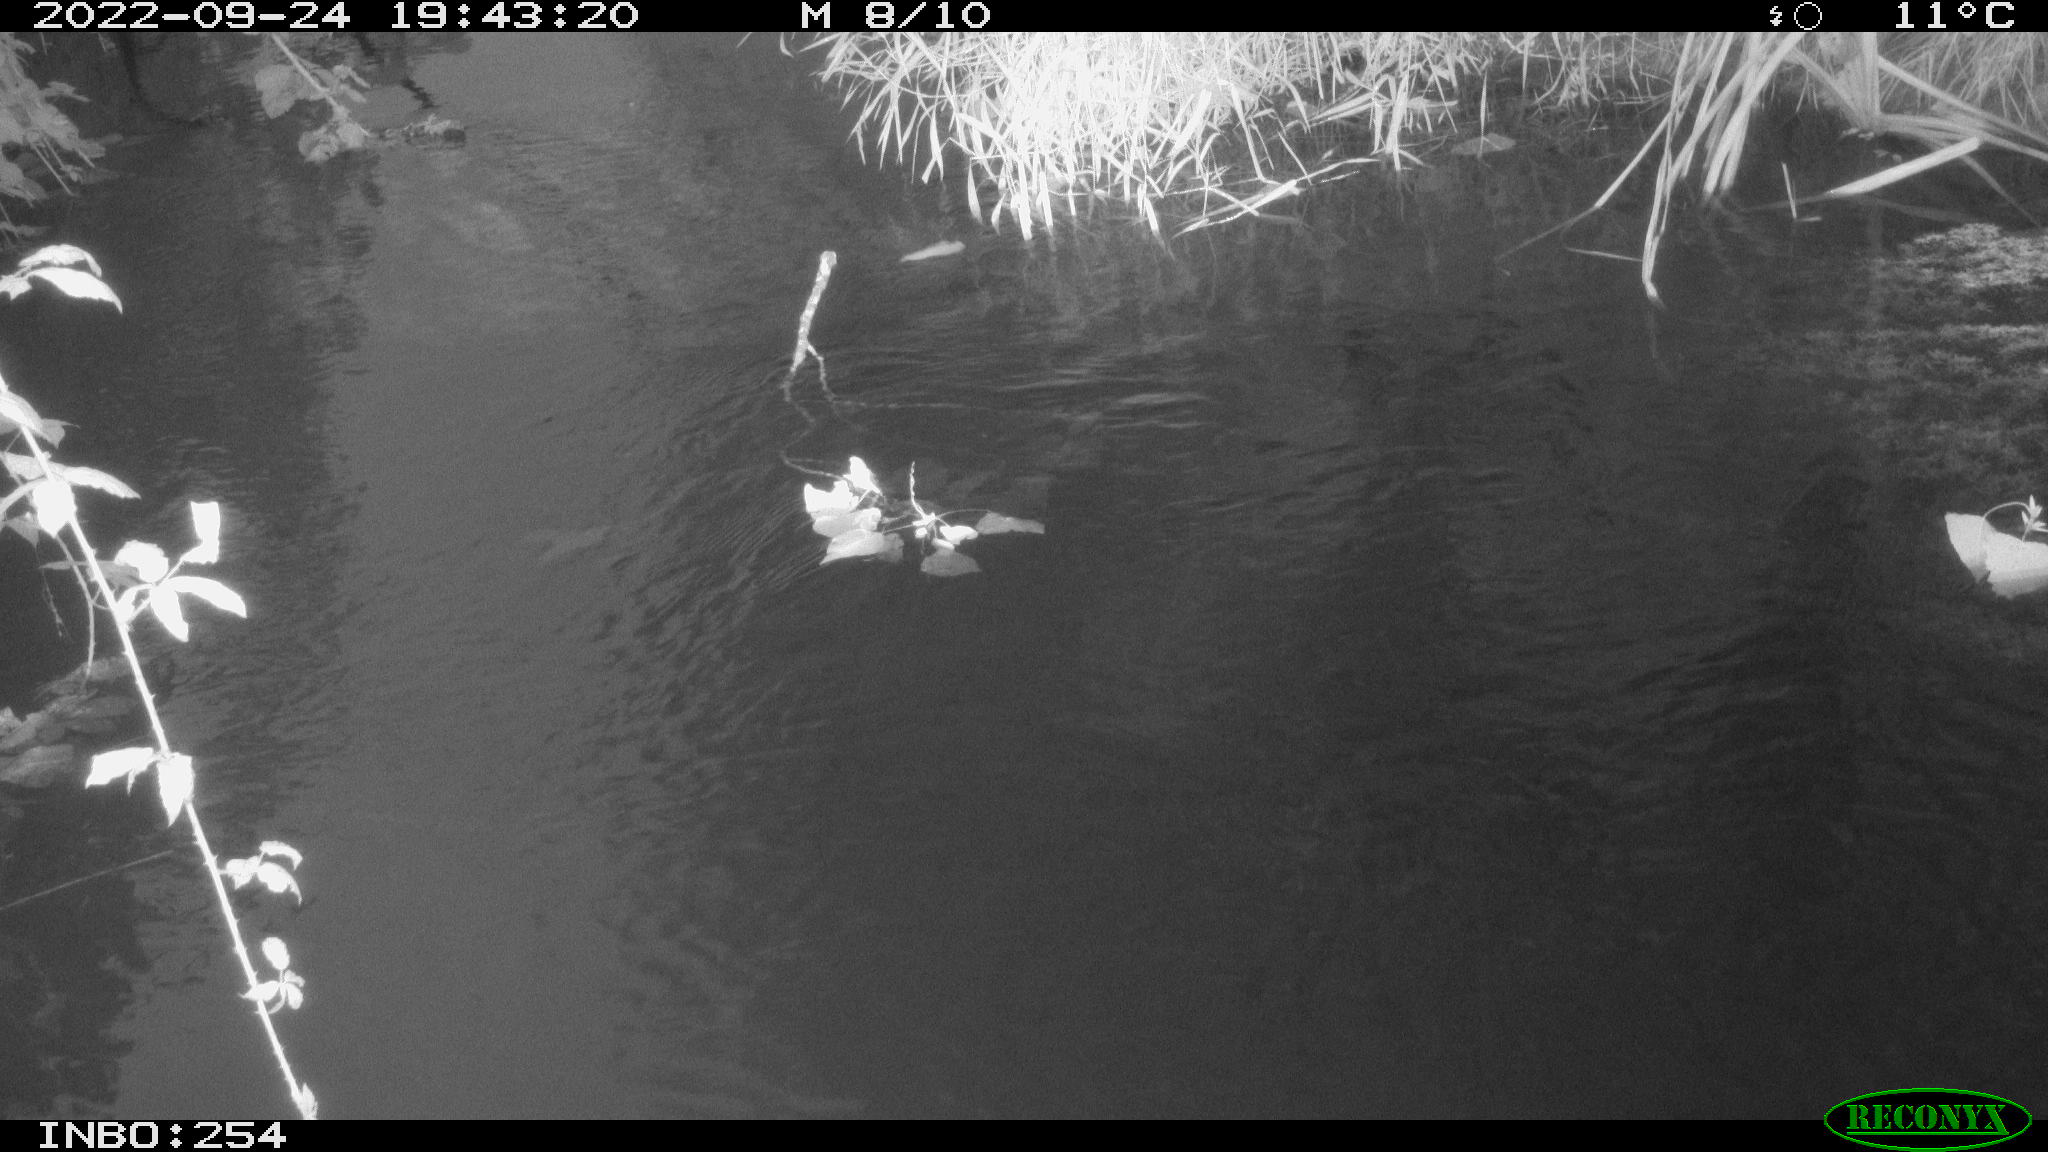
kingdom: Animalia
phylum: Chordata
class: Aves
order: Anseriformes
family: Anatidae
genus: Anas
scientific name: Anas platyrhynchos
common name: Mallard
